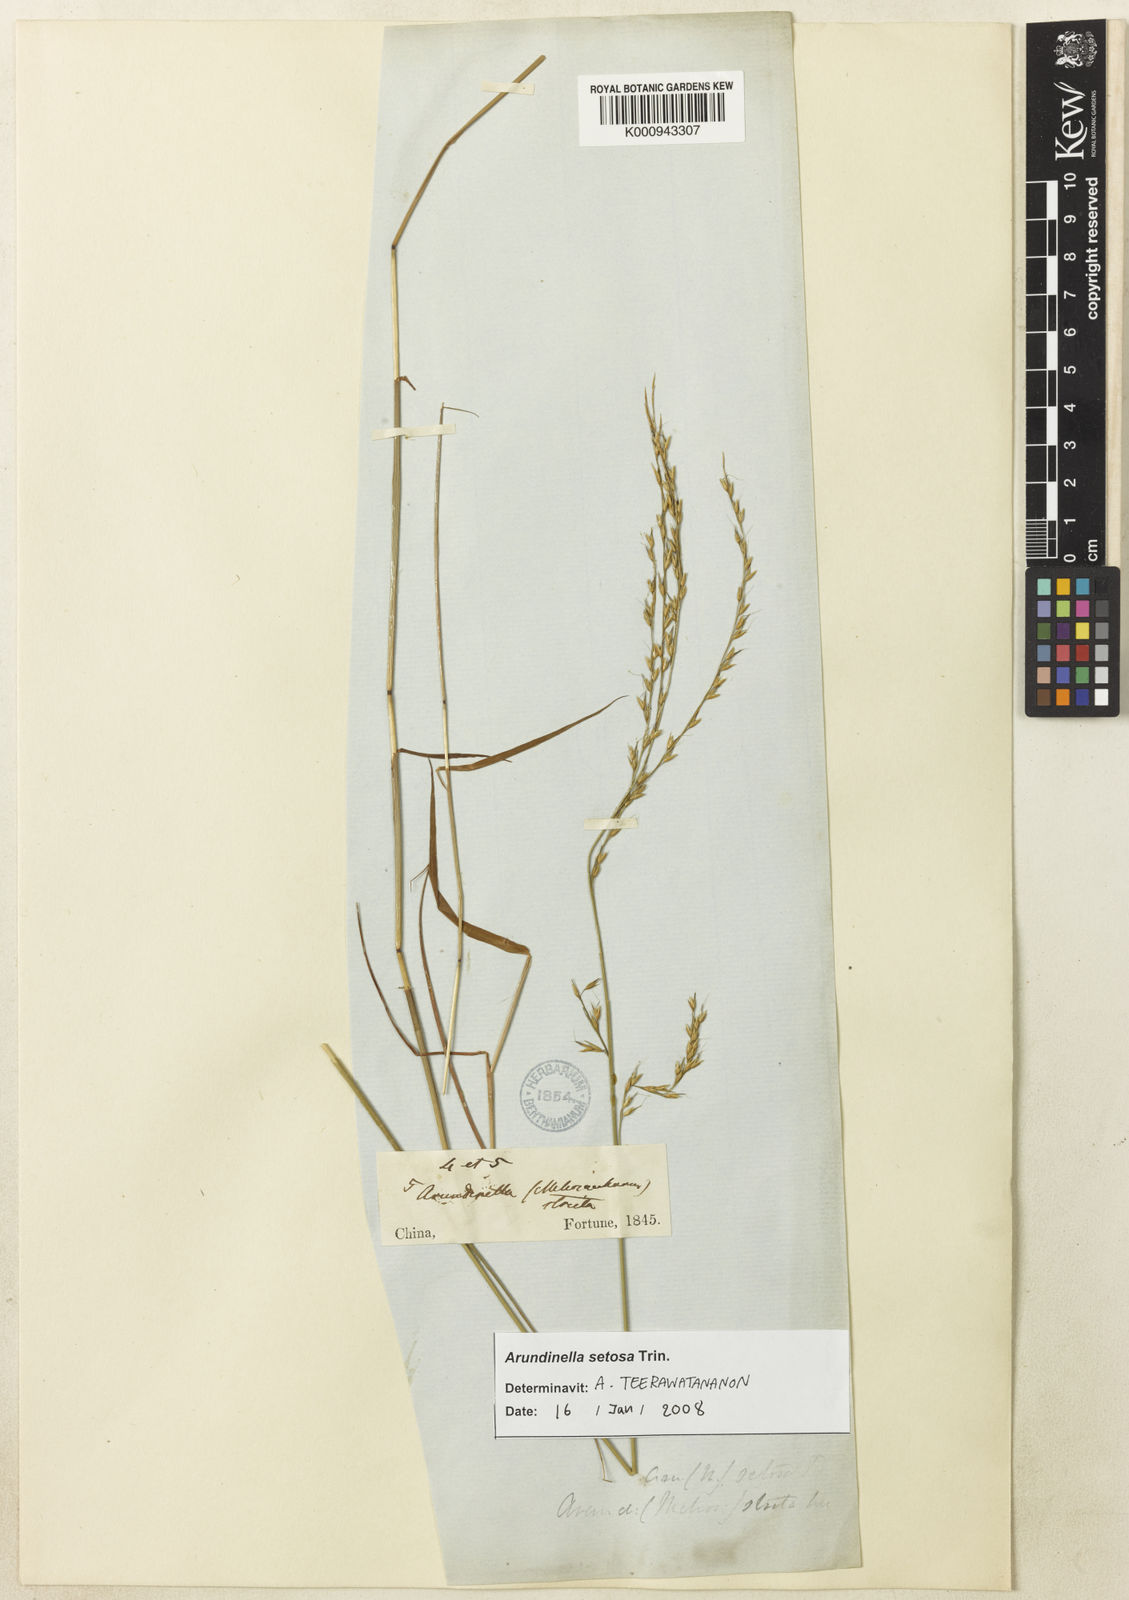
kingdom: Plantae
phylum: Tracheophyta
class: Liliopsida
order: Poales
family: Poaceae
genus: Arundinella
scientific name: Arundinella setosa
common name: Reed grass
